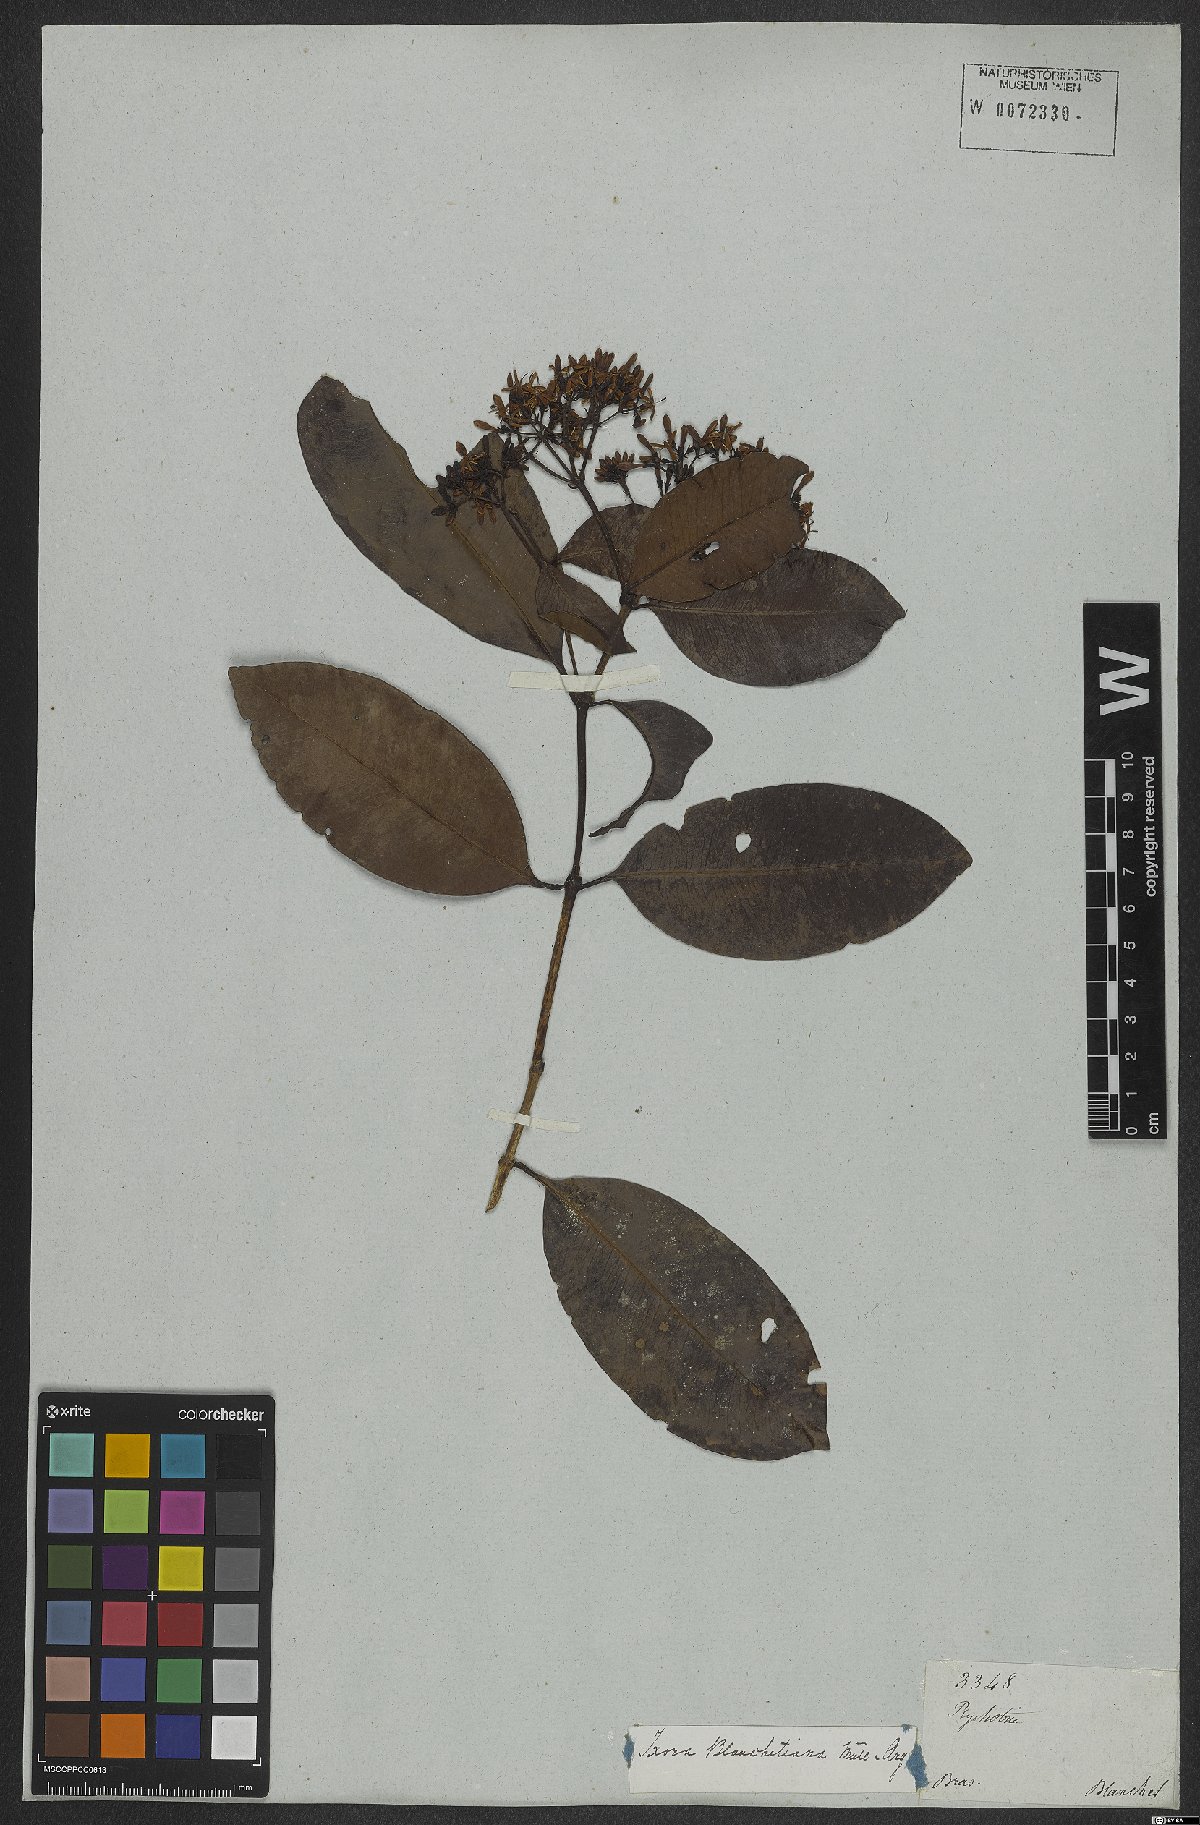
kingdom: Plantae
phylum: Tracheophyta
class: Magnoliopsida
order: Gentianales
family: Rubiaceae
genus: Ixora
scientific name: Ixora
